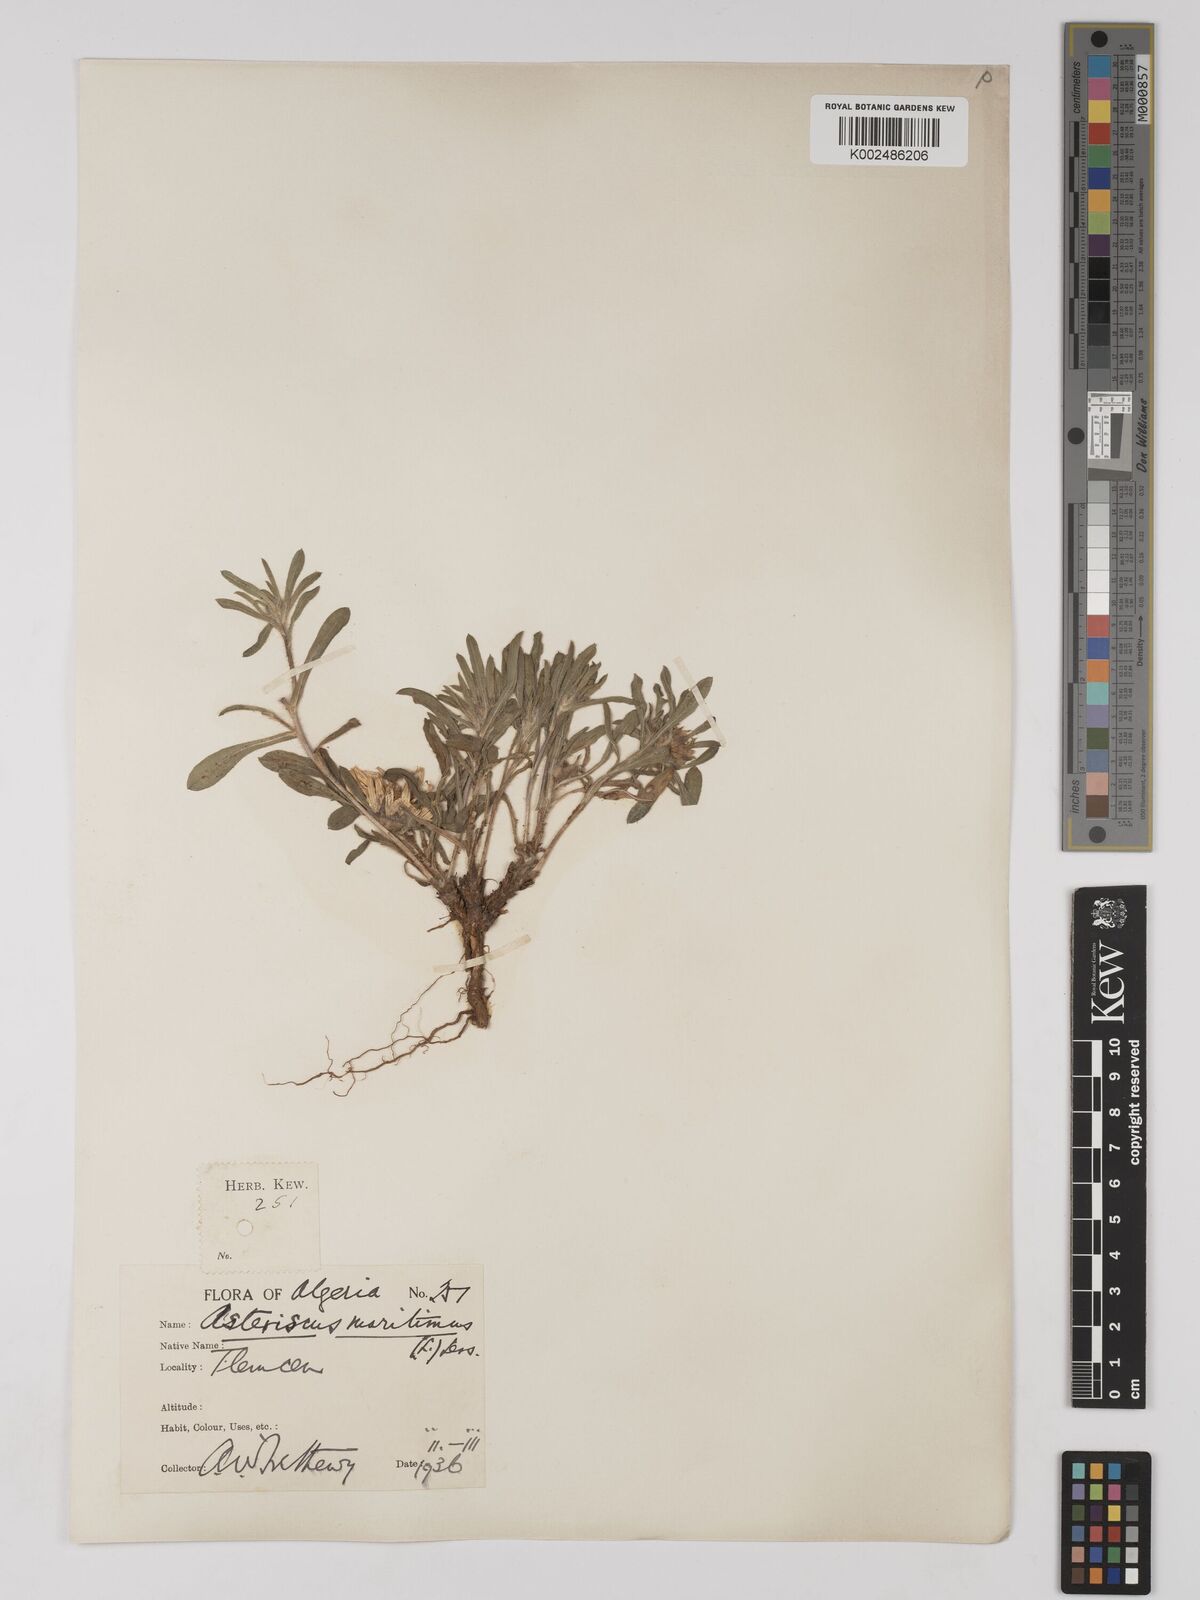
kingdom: Plantae
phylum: Tracheophyta
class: Magnoliopsida
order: Asterales
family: Asteraceae
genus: Pallenis
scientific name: Pallenis maritima
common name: Golden coin daisy
